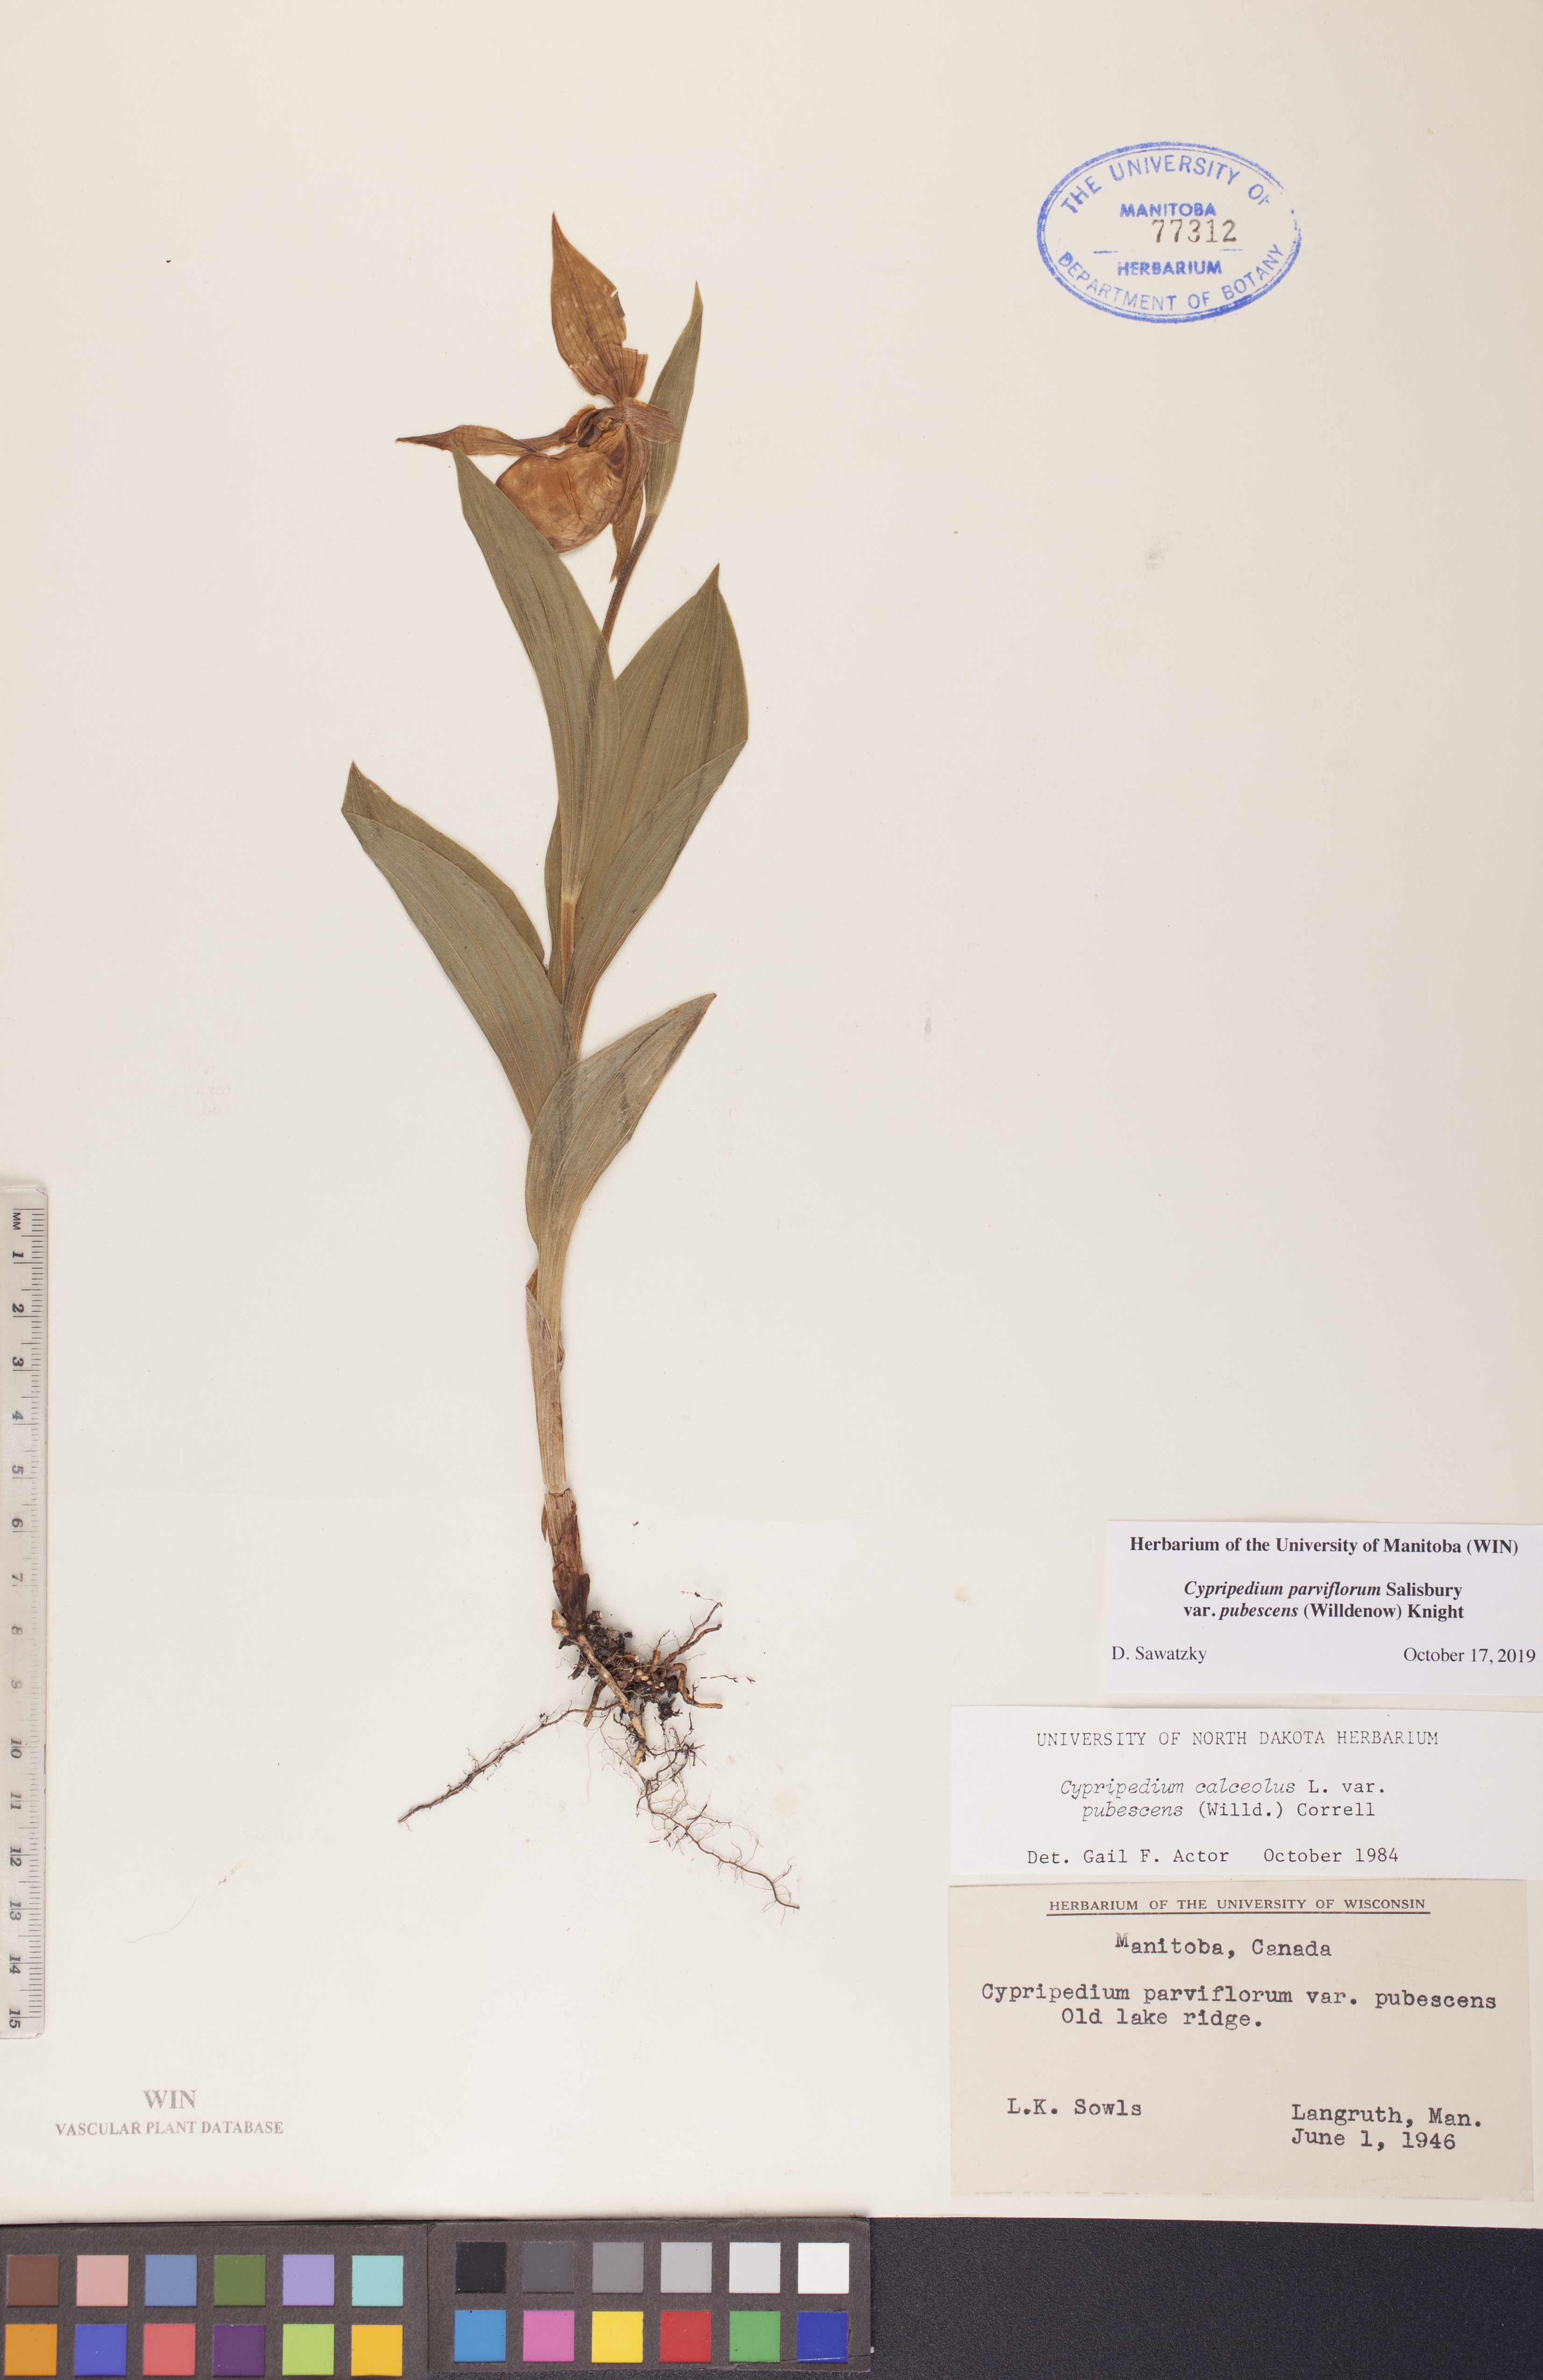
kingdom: Plantae
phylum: Tracheophyta
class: Liliopsida
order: Asparagales
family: Orchidaceae
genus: Cypripedium
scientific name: Cypripedium parviflorum
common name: American yellow lady's-slipper
